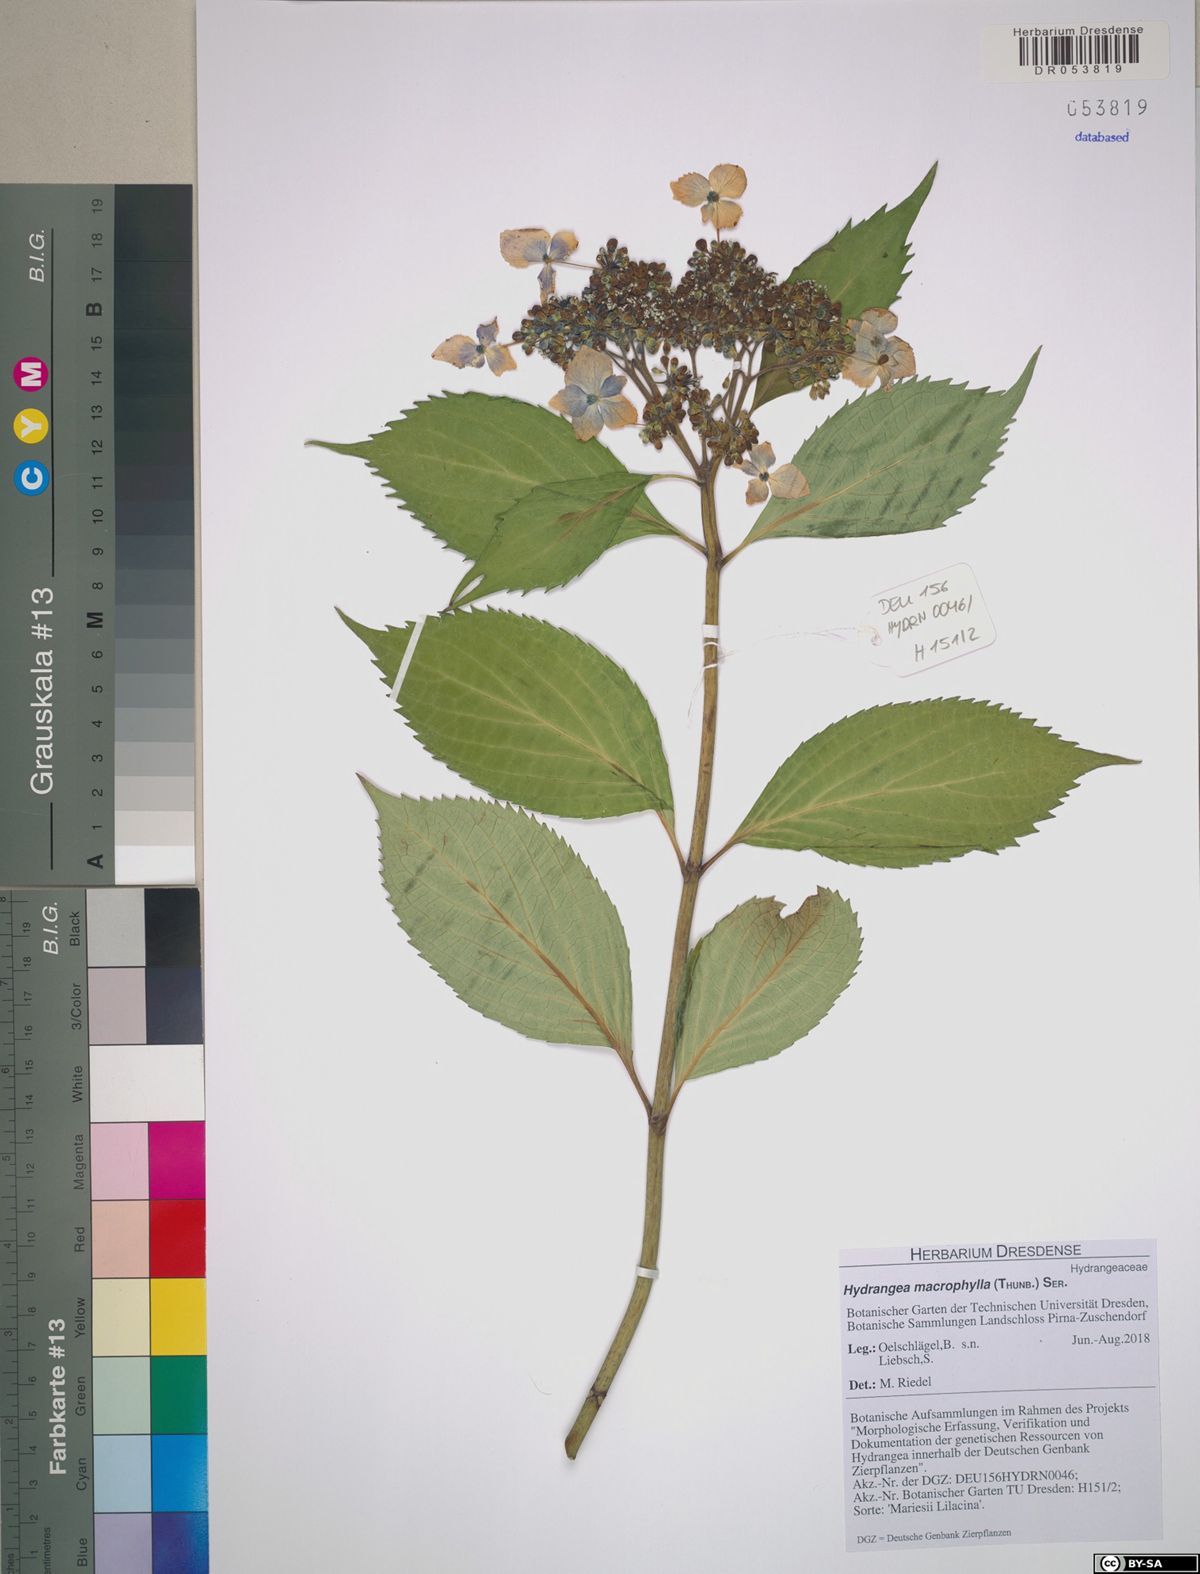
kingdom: Plantae
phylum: Tracheophyta
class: Magnoliopsida
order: Cornales
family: Hydrangeaceae
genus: Hydrangea
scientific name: Hydrangea macrophylla
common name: Hydrangea
